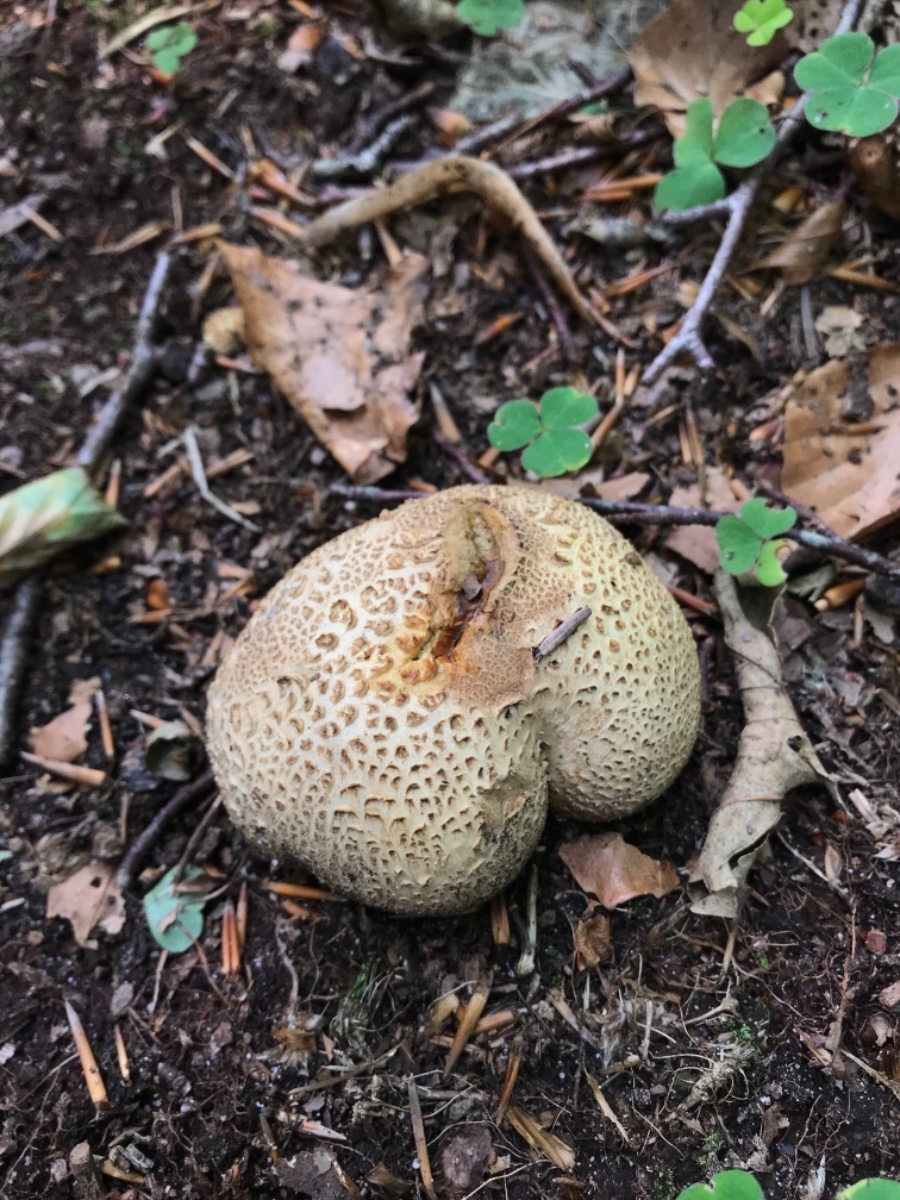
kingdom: Fungi
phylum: Basidiomycota
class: Agaricomycetes
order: Boletales
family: Sclerodermataceae
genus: Scleroderma
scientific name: Scleroderma citrinum
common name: almindelig bruskbold
